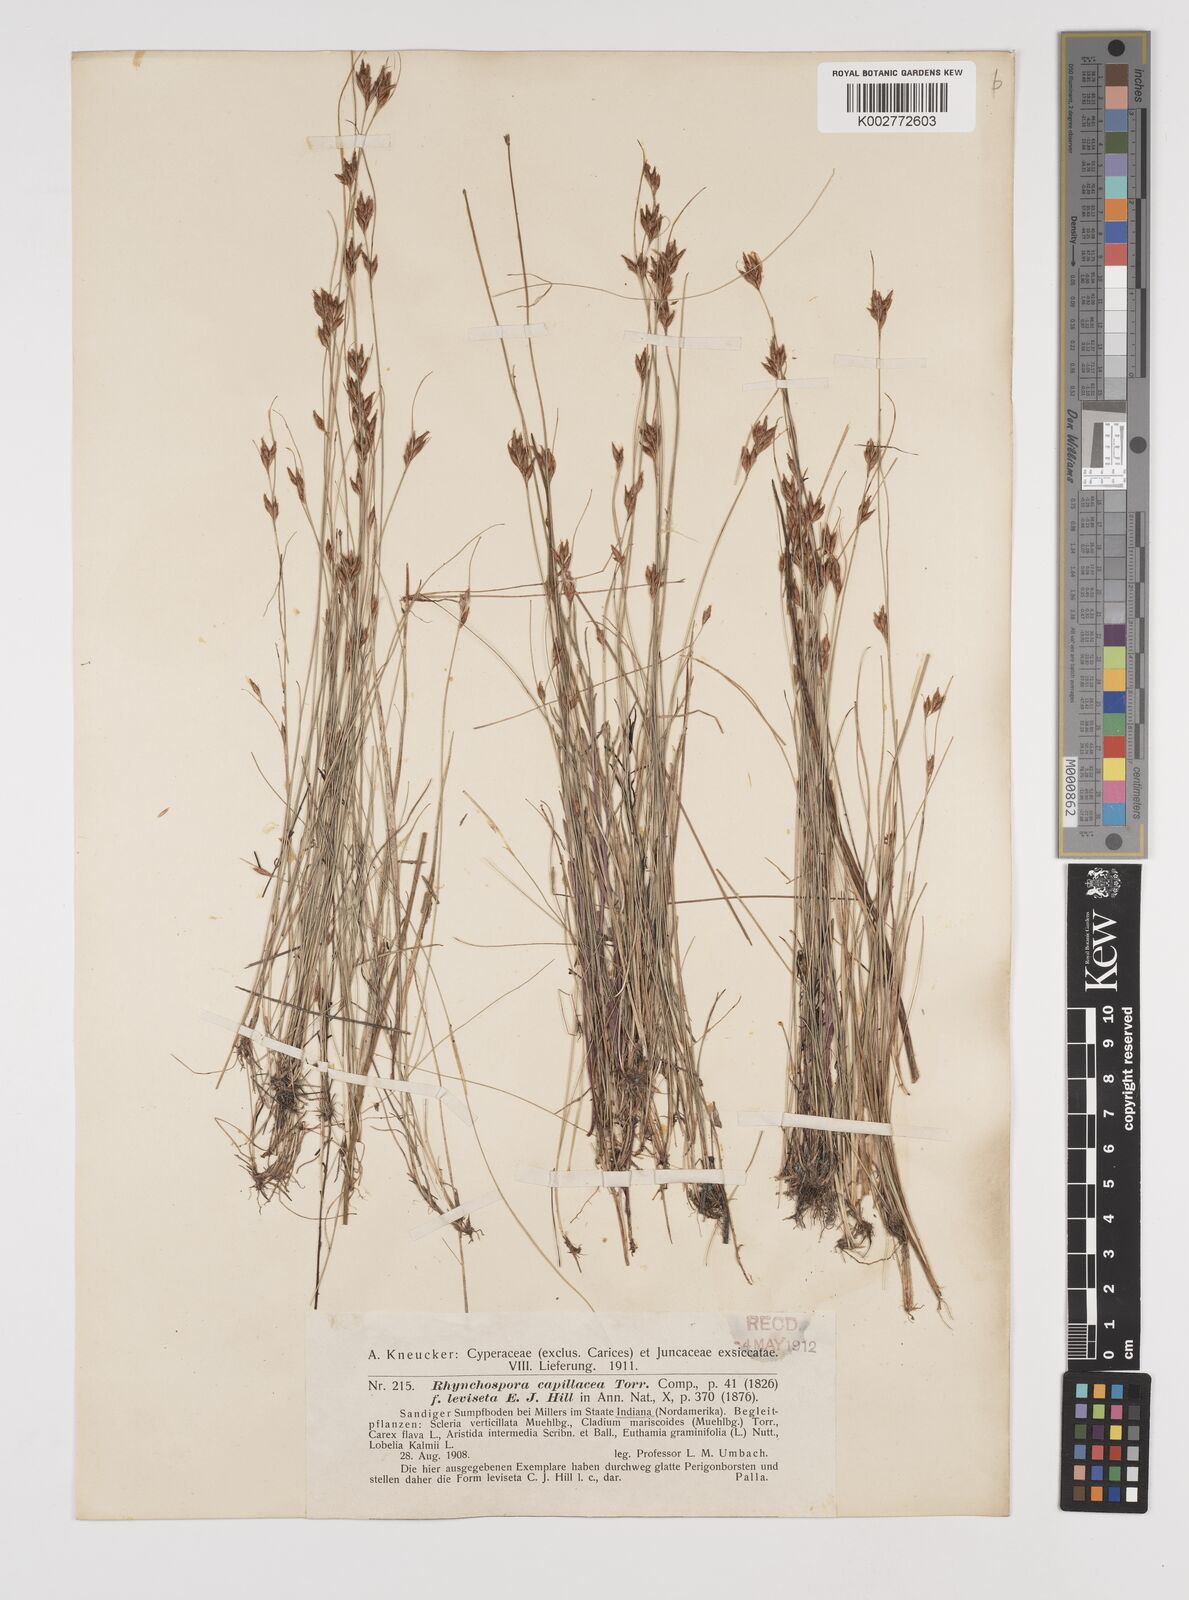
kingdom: Plantae
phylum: Tracheophyta
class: Liliopsida
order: Poales
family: Cyperaceae
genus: Rhynchospora
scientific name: Rhynchospora capillacea
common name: Capillary beakrush
